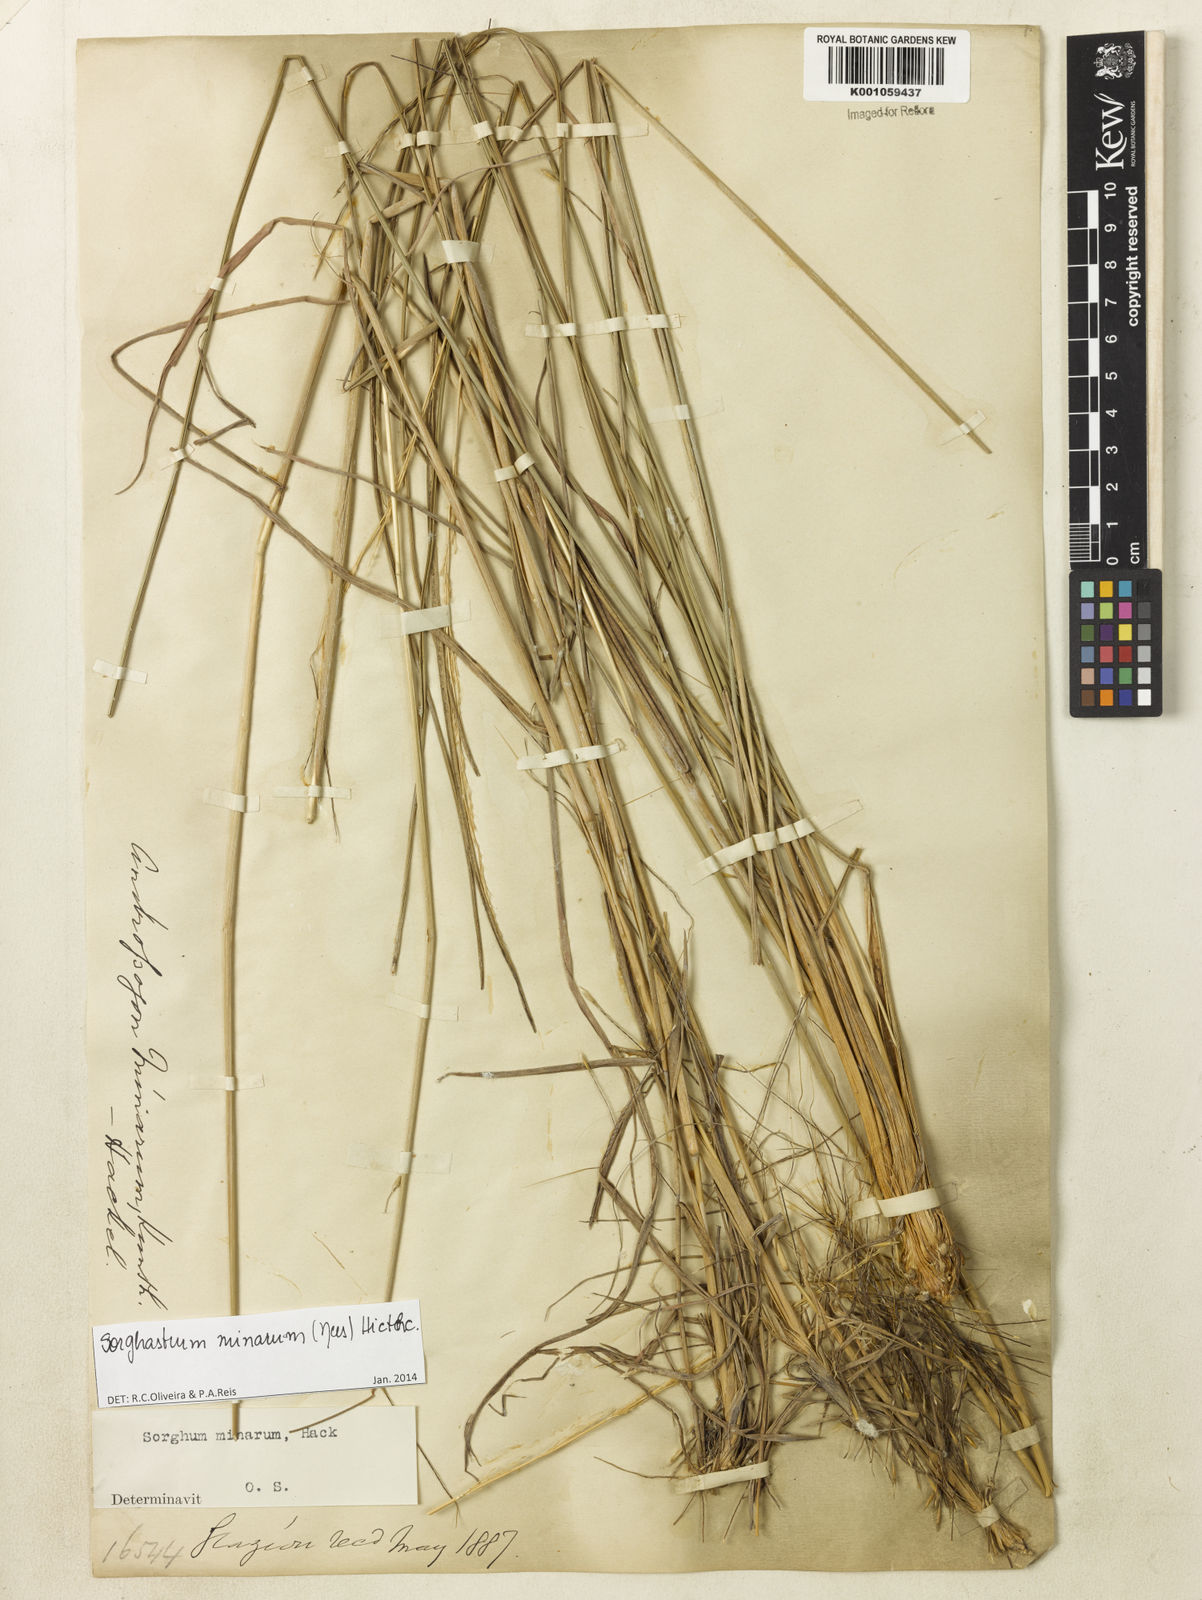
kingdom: Plantae
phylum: Tracheophyta
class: Liliopsida
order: Poales
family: Poaceae
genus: Sorghastrum
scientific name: Sorghastrum minarum
